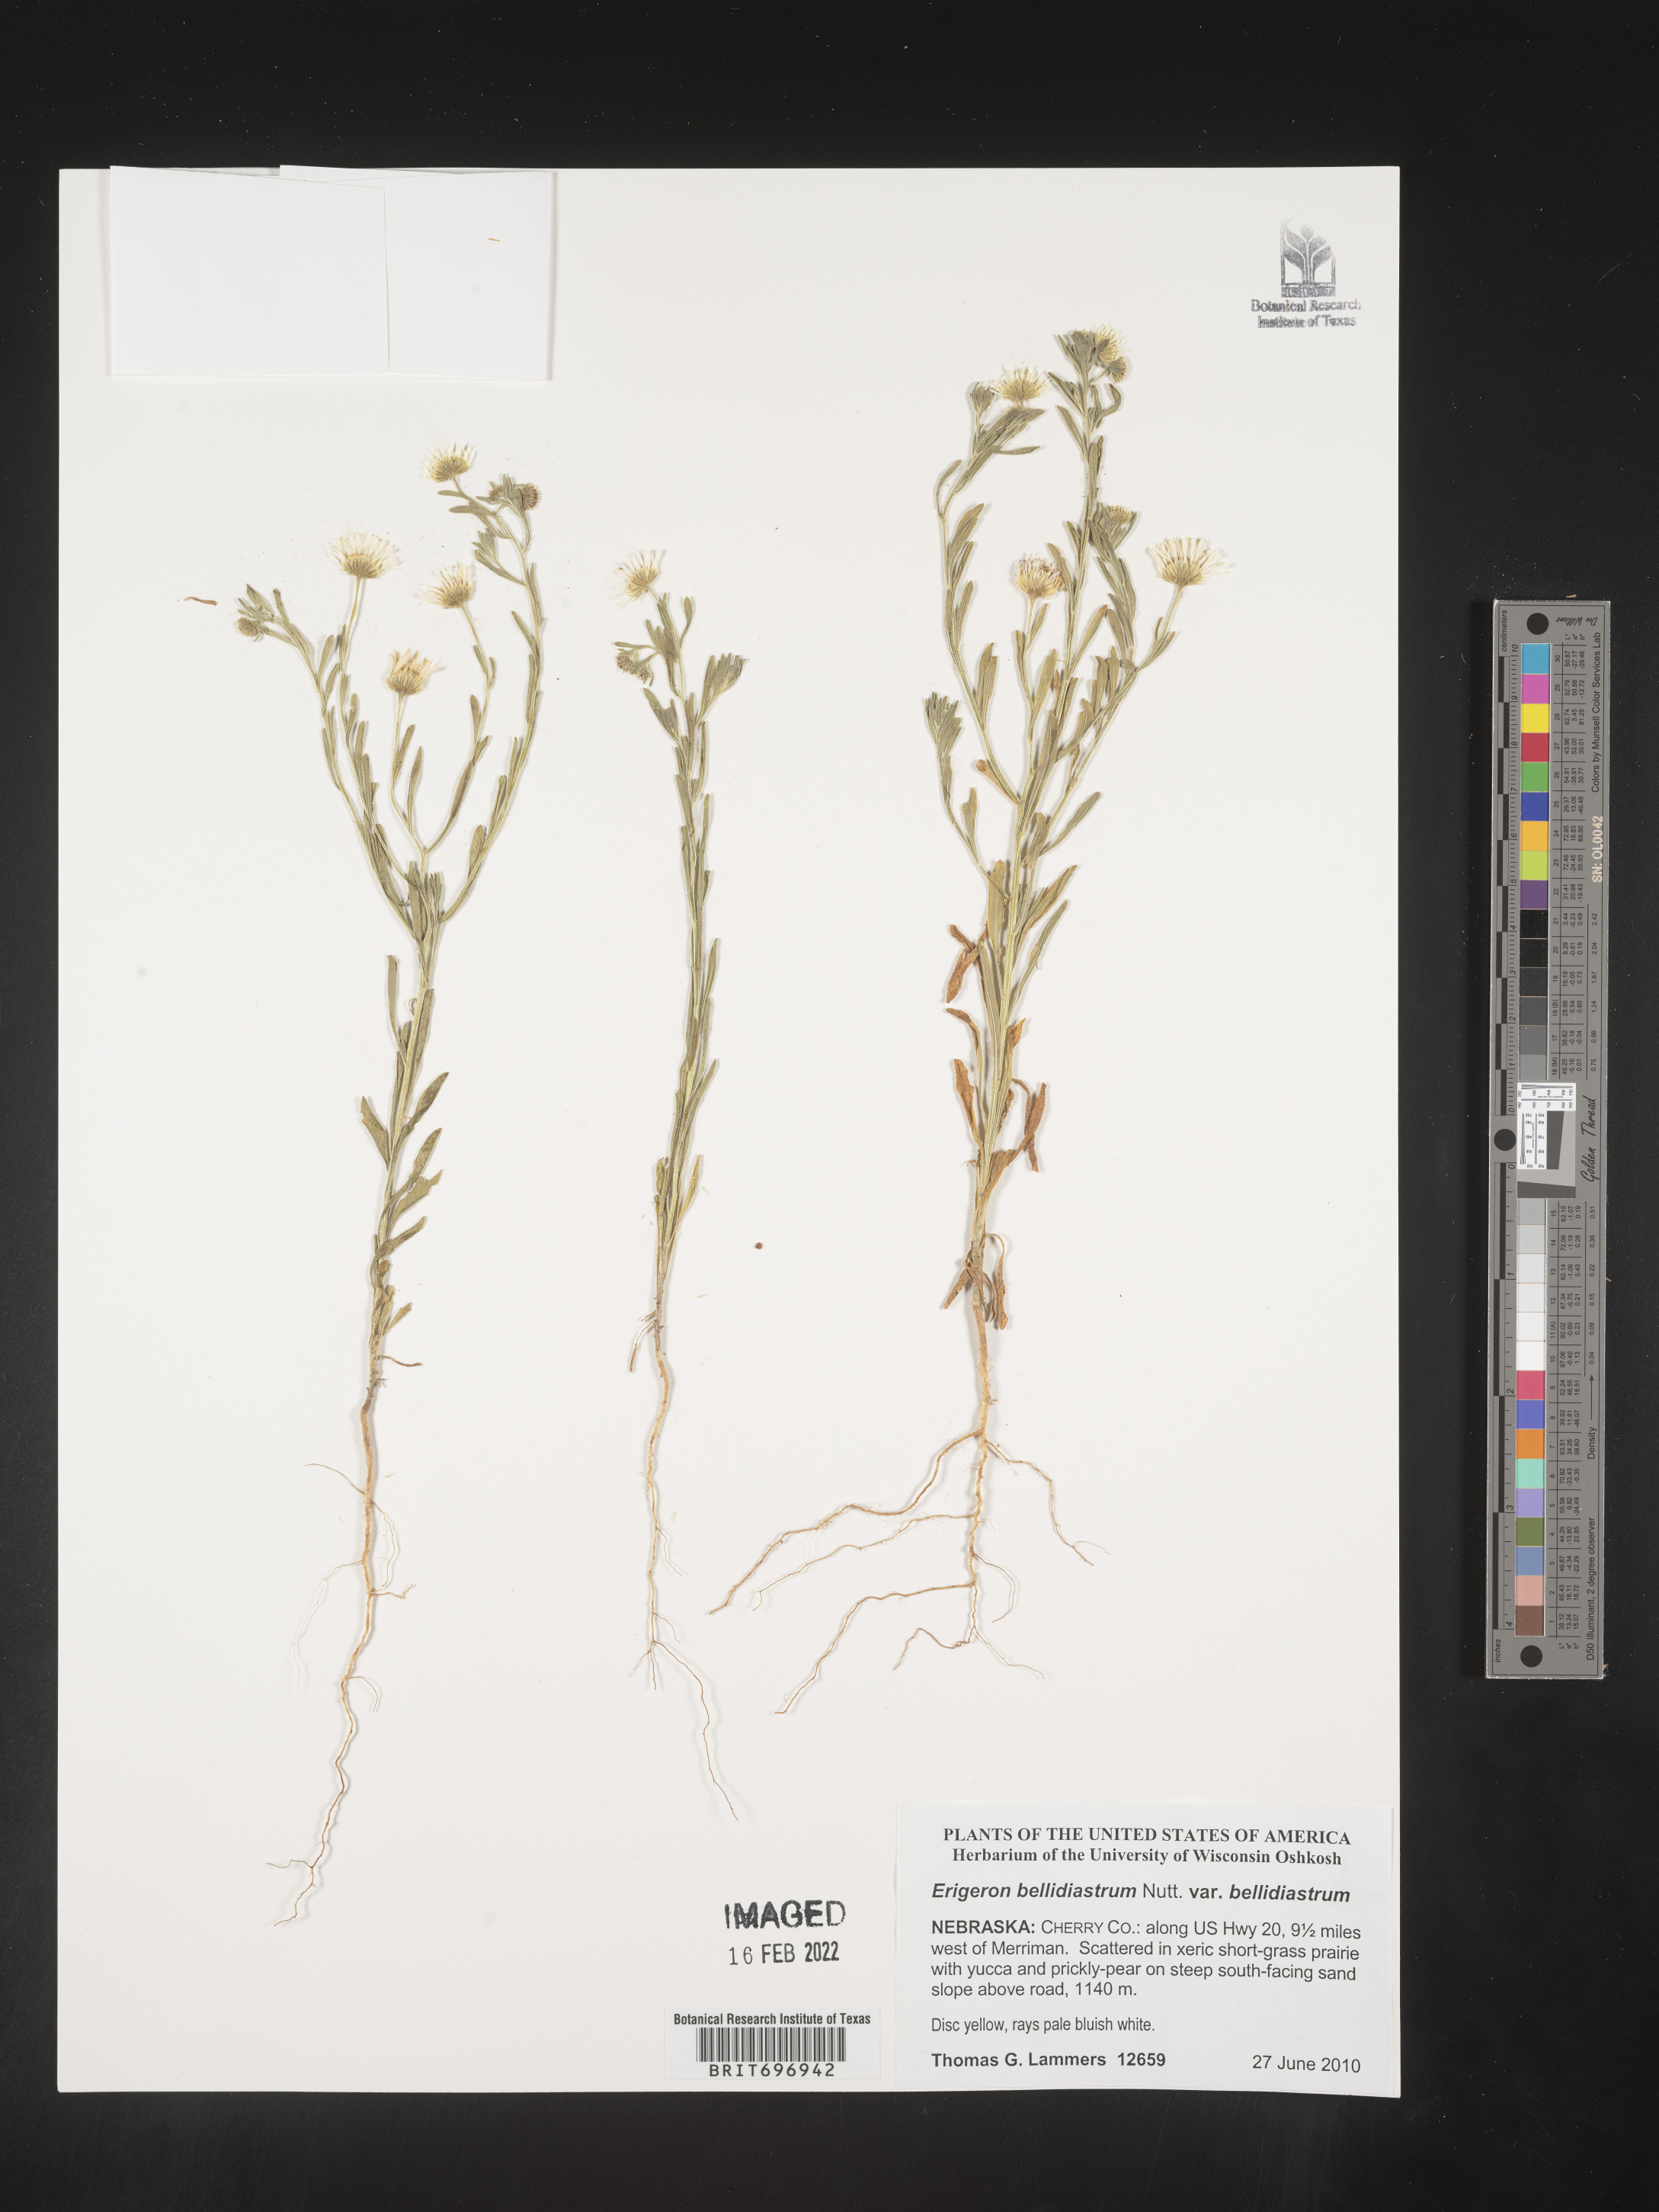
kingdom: Plantae
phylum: Tracheophyta
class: Magnoliopsida
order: Asterales
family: Asteraceae
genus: Erigeron
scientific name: Erigeron bellidiastrum
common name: Sand fleabane
